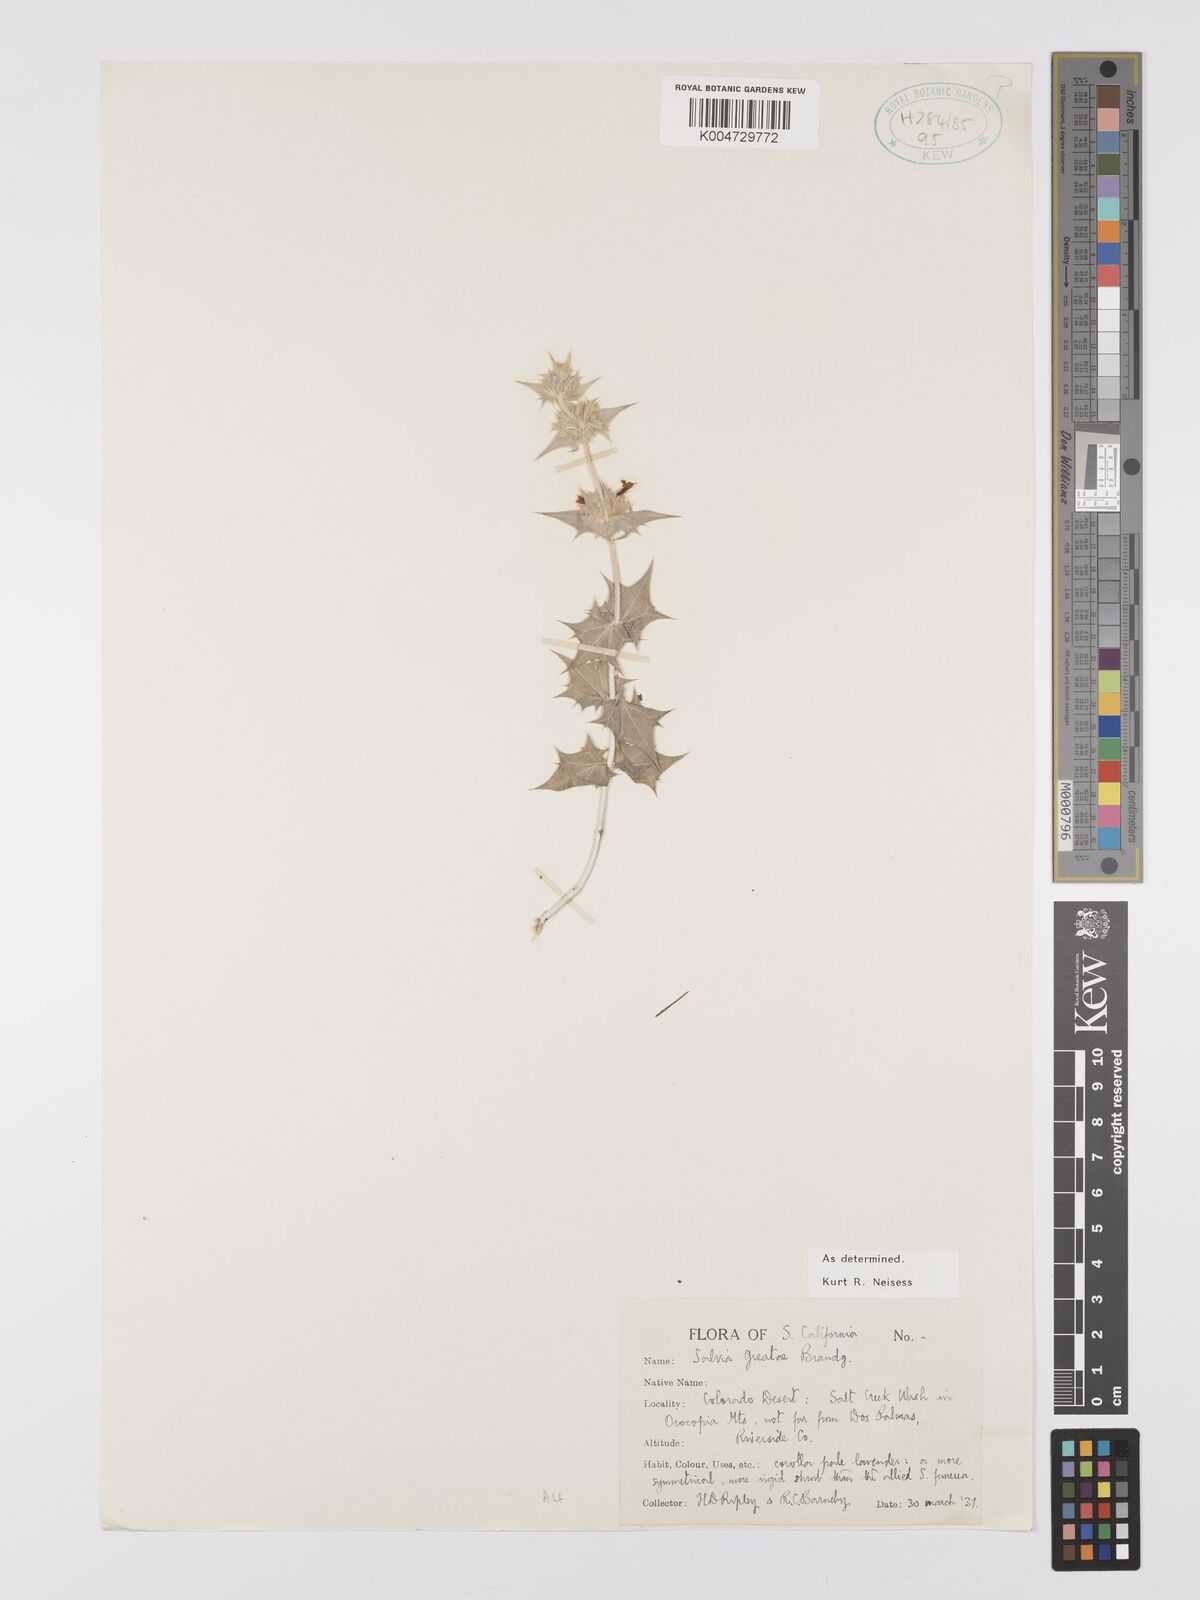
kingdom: Plantae
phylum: Tracheophyta
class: Magnoliopsida
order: Lamiales
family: Lamiaceae
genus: Salvia
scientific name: Salvia greatae
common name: Orocopia sage
